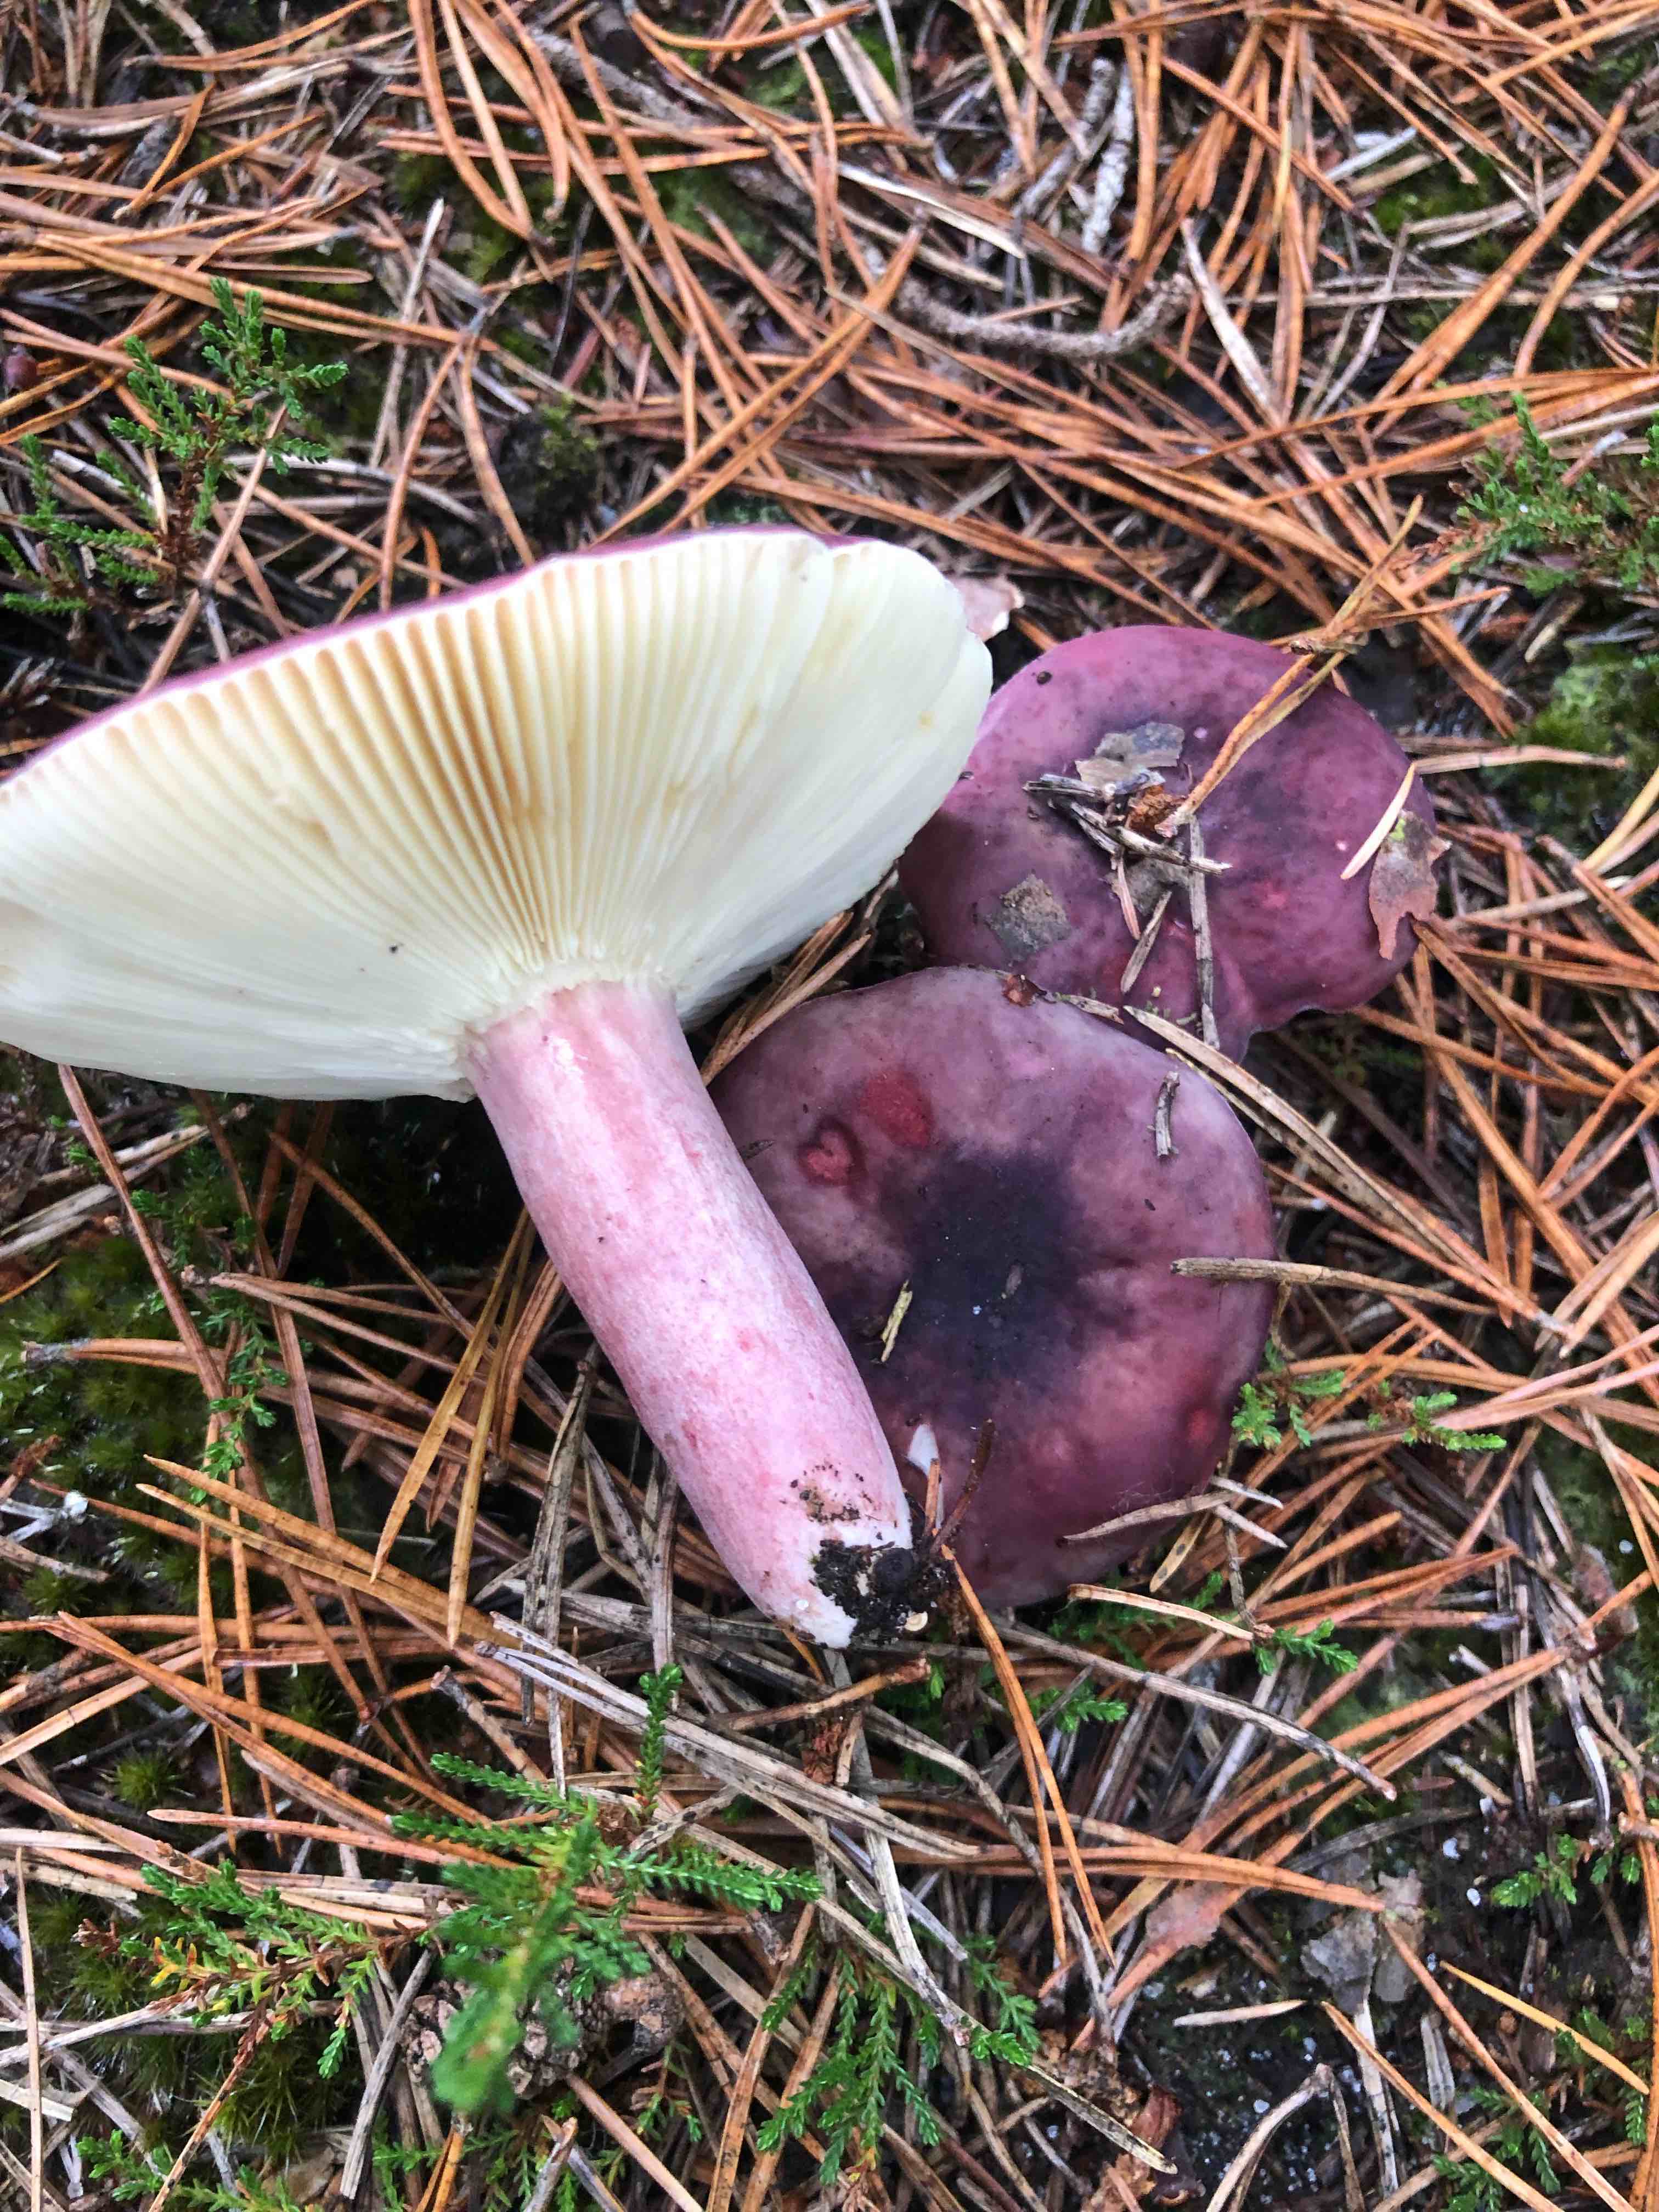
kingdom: Fungi
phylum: Basidiomycota
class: Agaricomycetes
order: Russulales
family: Russulaceae
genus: Russula
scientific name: Russula sardonia
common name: citronbladet skørhat
